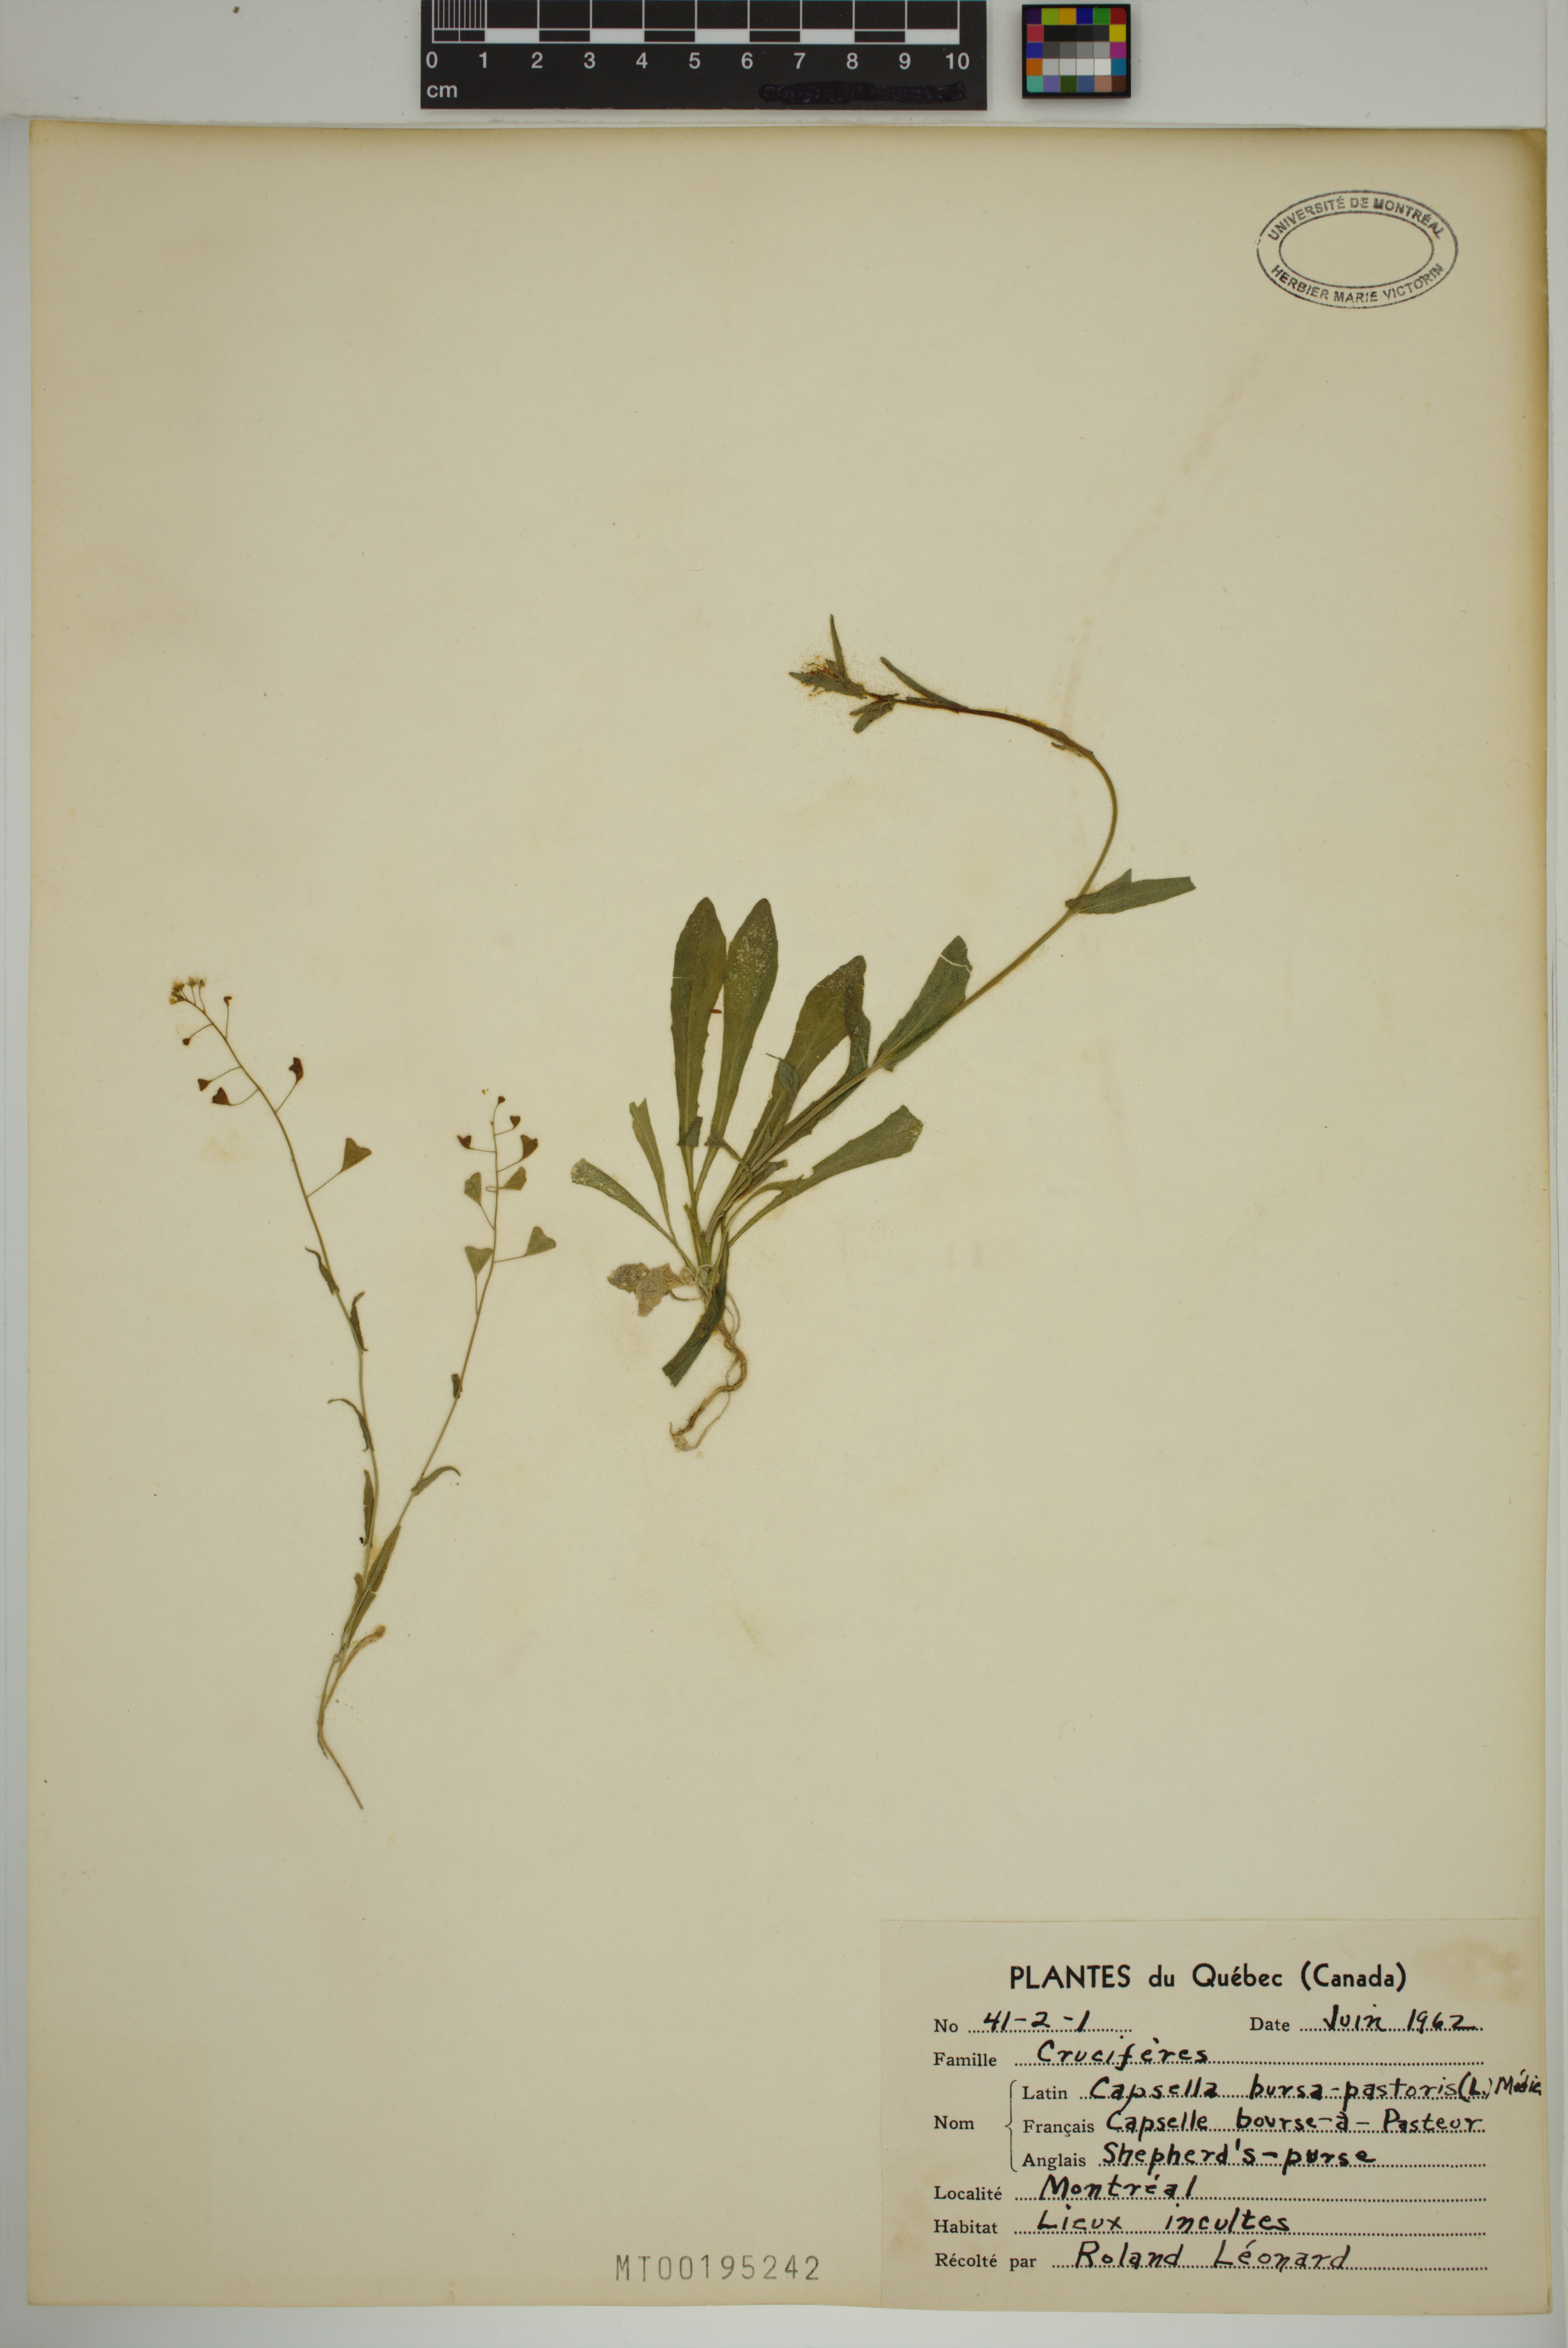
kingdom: Plantae
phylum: Tracheophyta
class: Magnoliopsida
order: Brassicales
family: Brassicaceae
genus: Capsella
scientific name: Capsella bursa-pastoris
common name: Shepherd's purse
